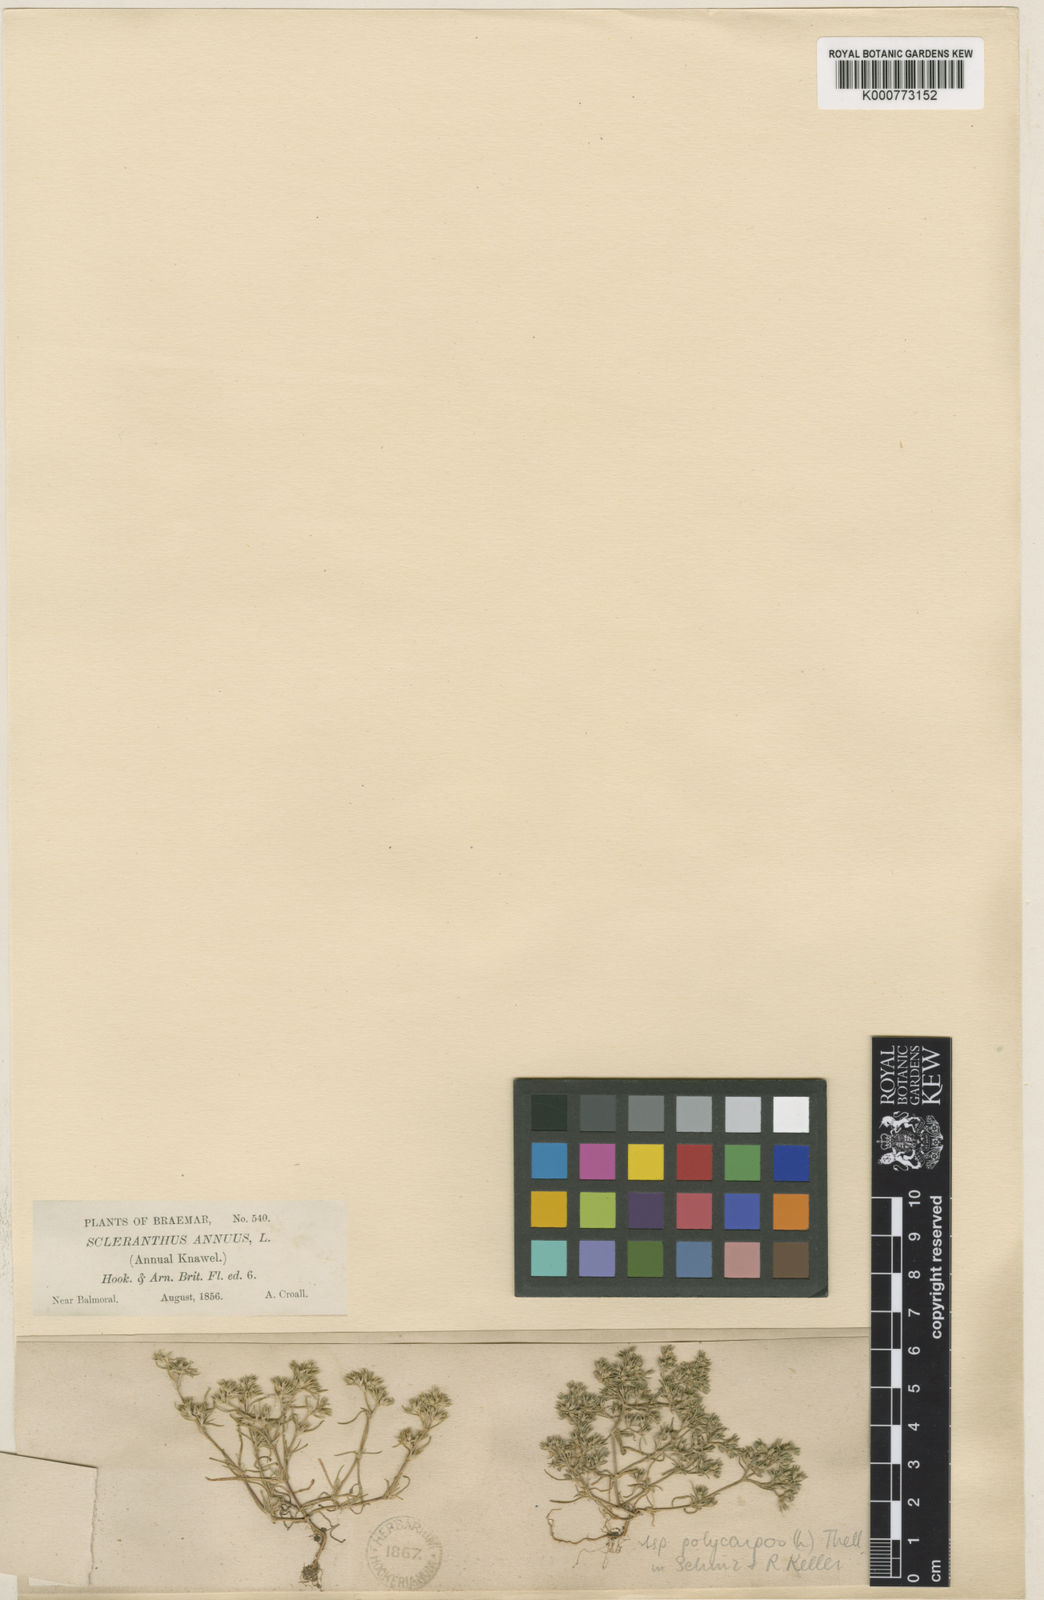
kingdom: Plantae
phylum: Tracheophyta
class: Magnoliopsida
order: Caryophyllales
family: Caryophyllaceae
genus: Scleranthus
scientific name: Scleranthus annuus
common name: Annual knawel
